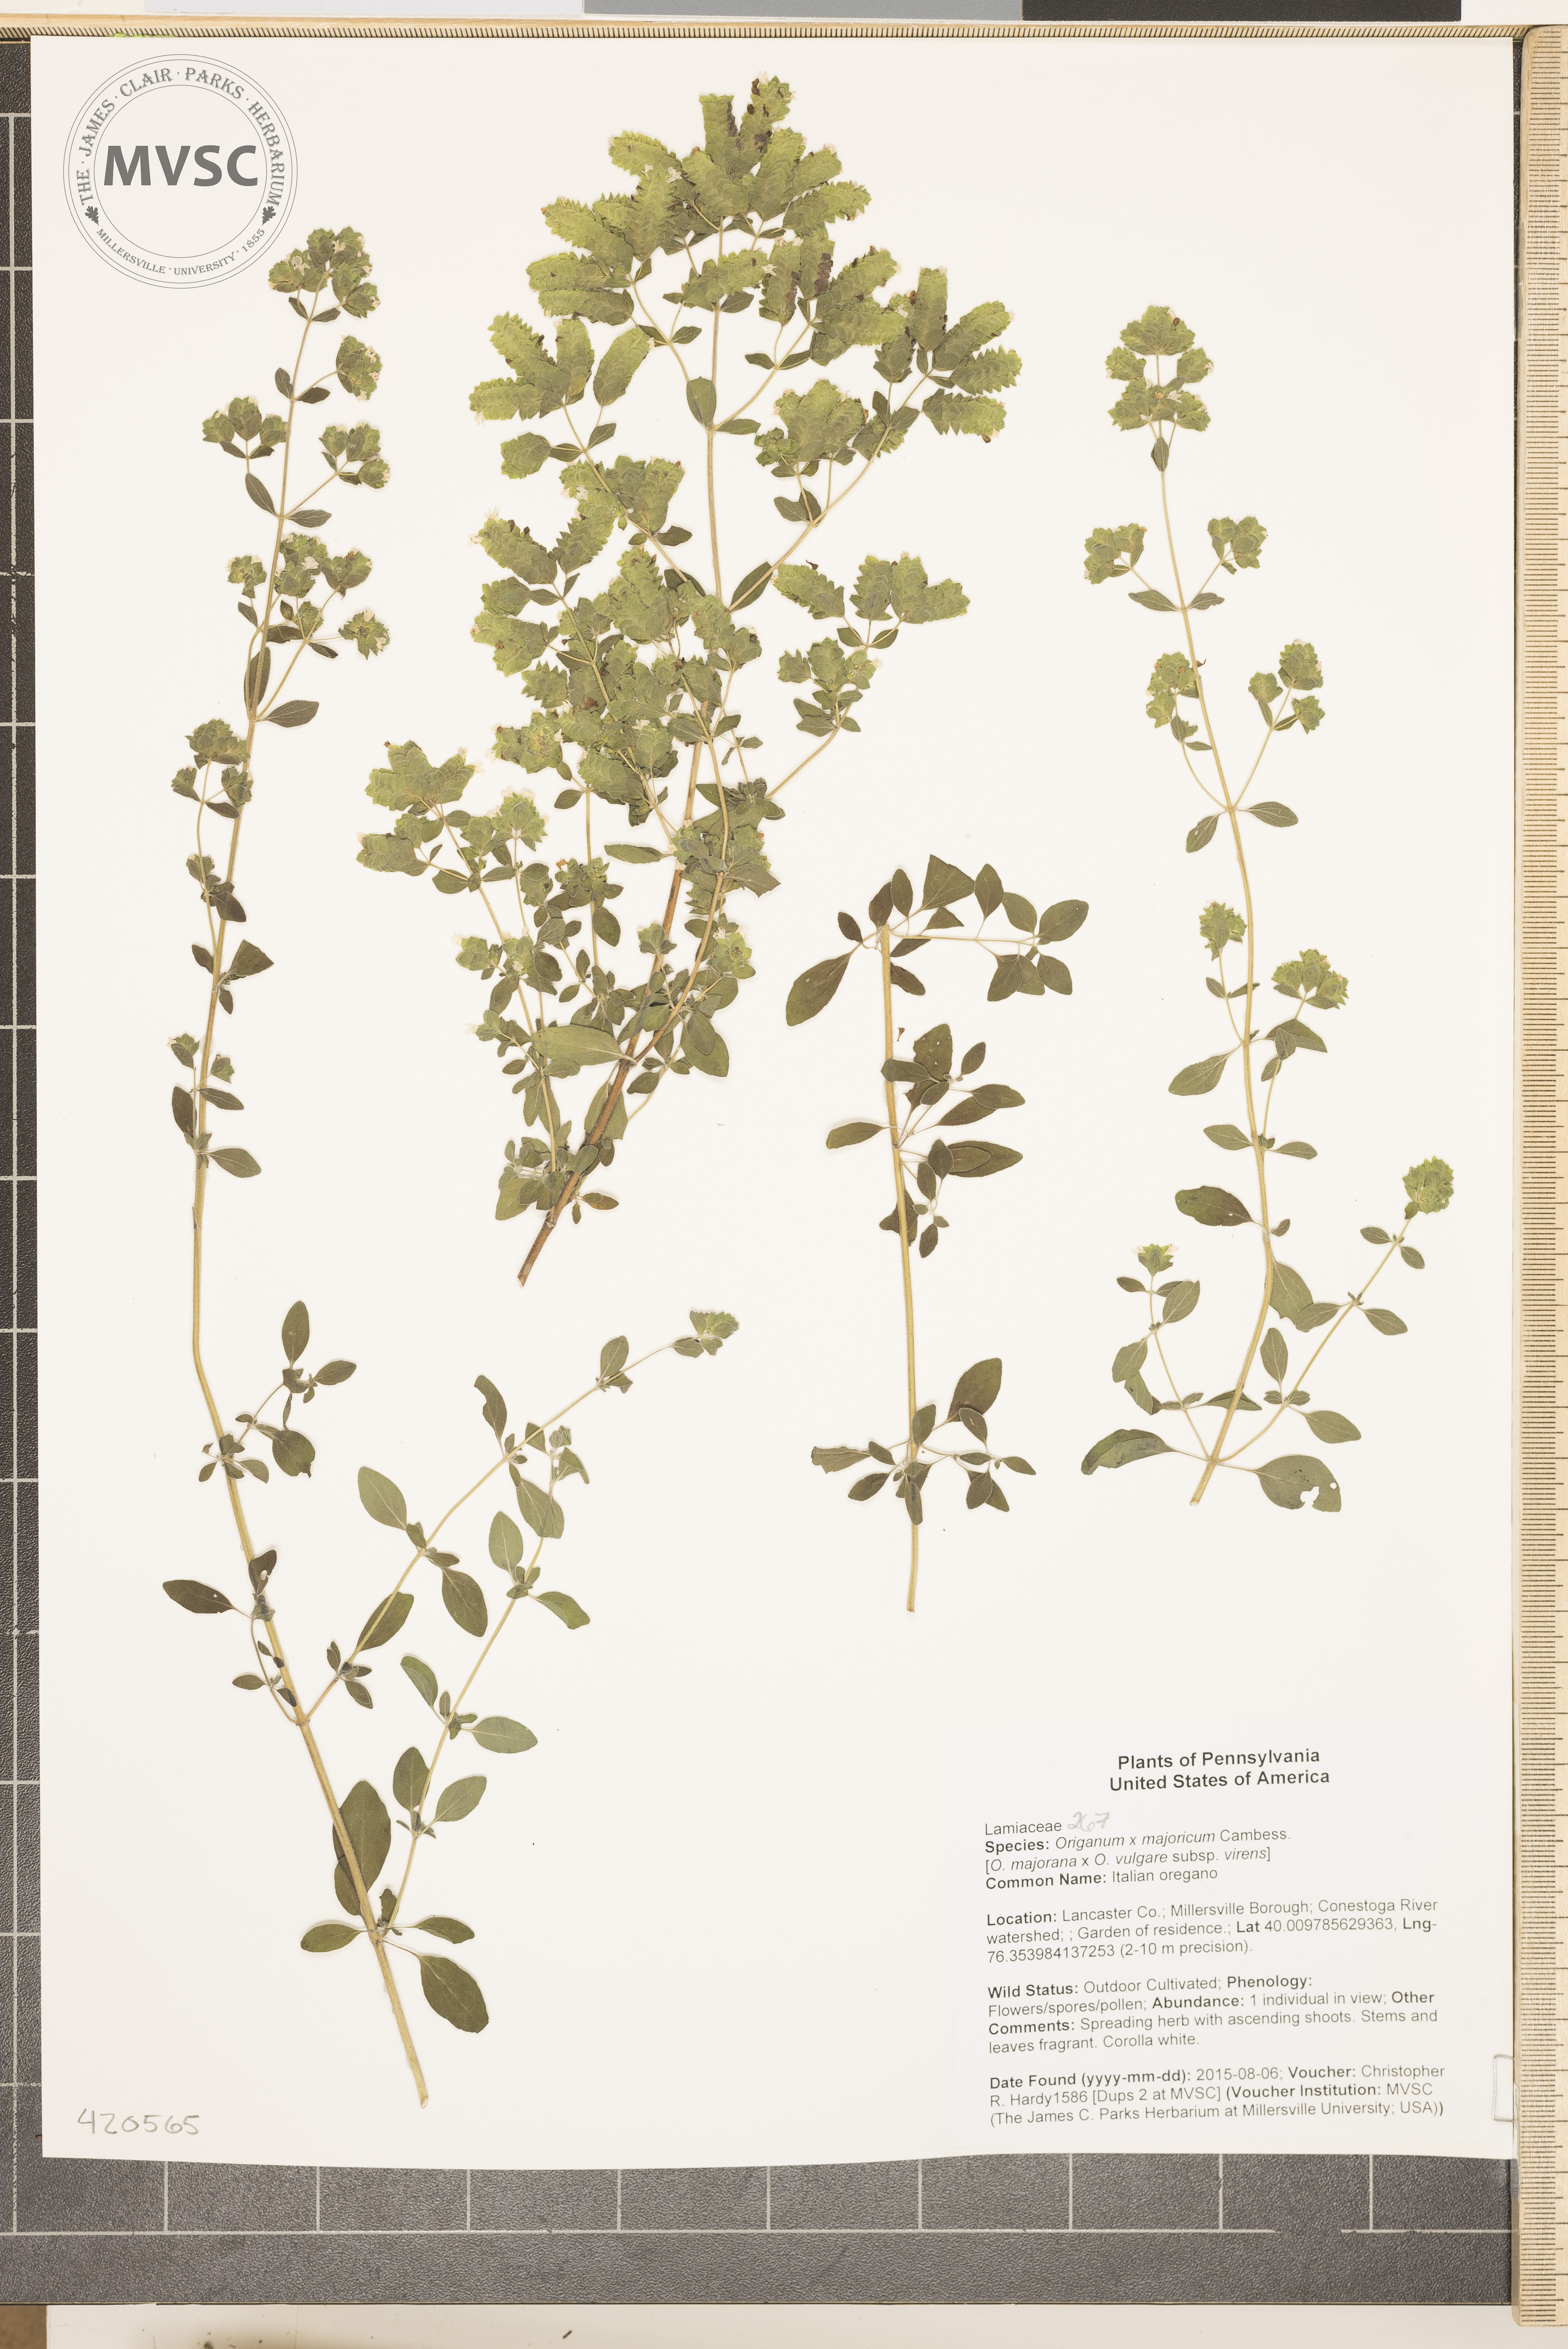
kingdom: Plantae
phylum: Tracheophyta
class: Magnoliopsida
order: Lamiales
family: Lamiaceae
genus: Origanum
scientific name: Origanum majoricum
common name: Italian oregano
